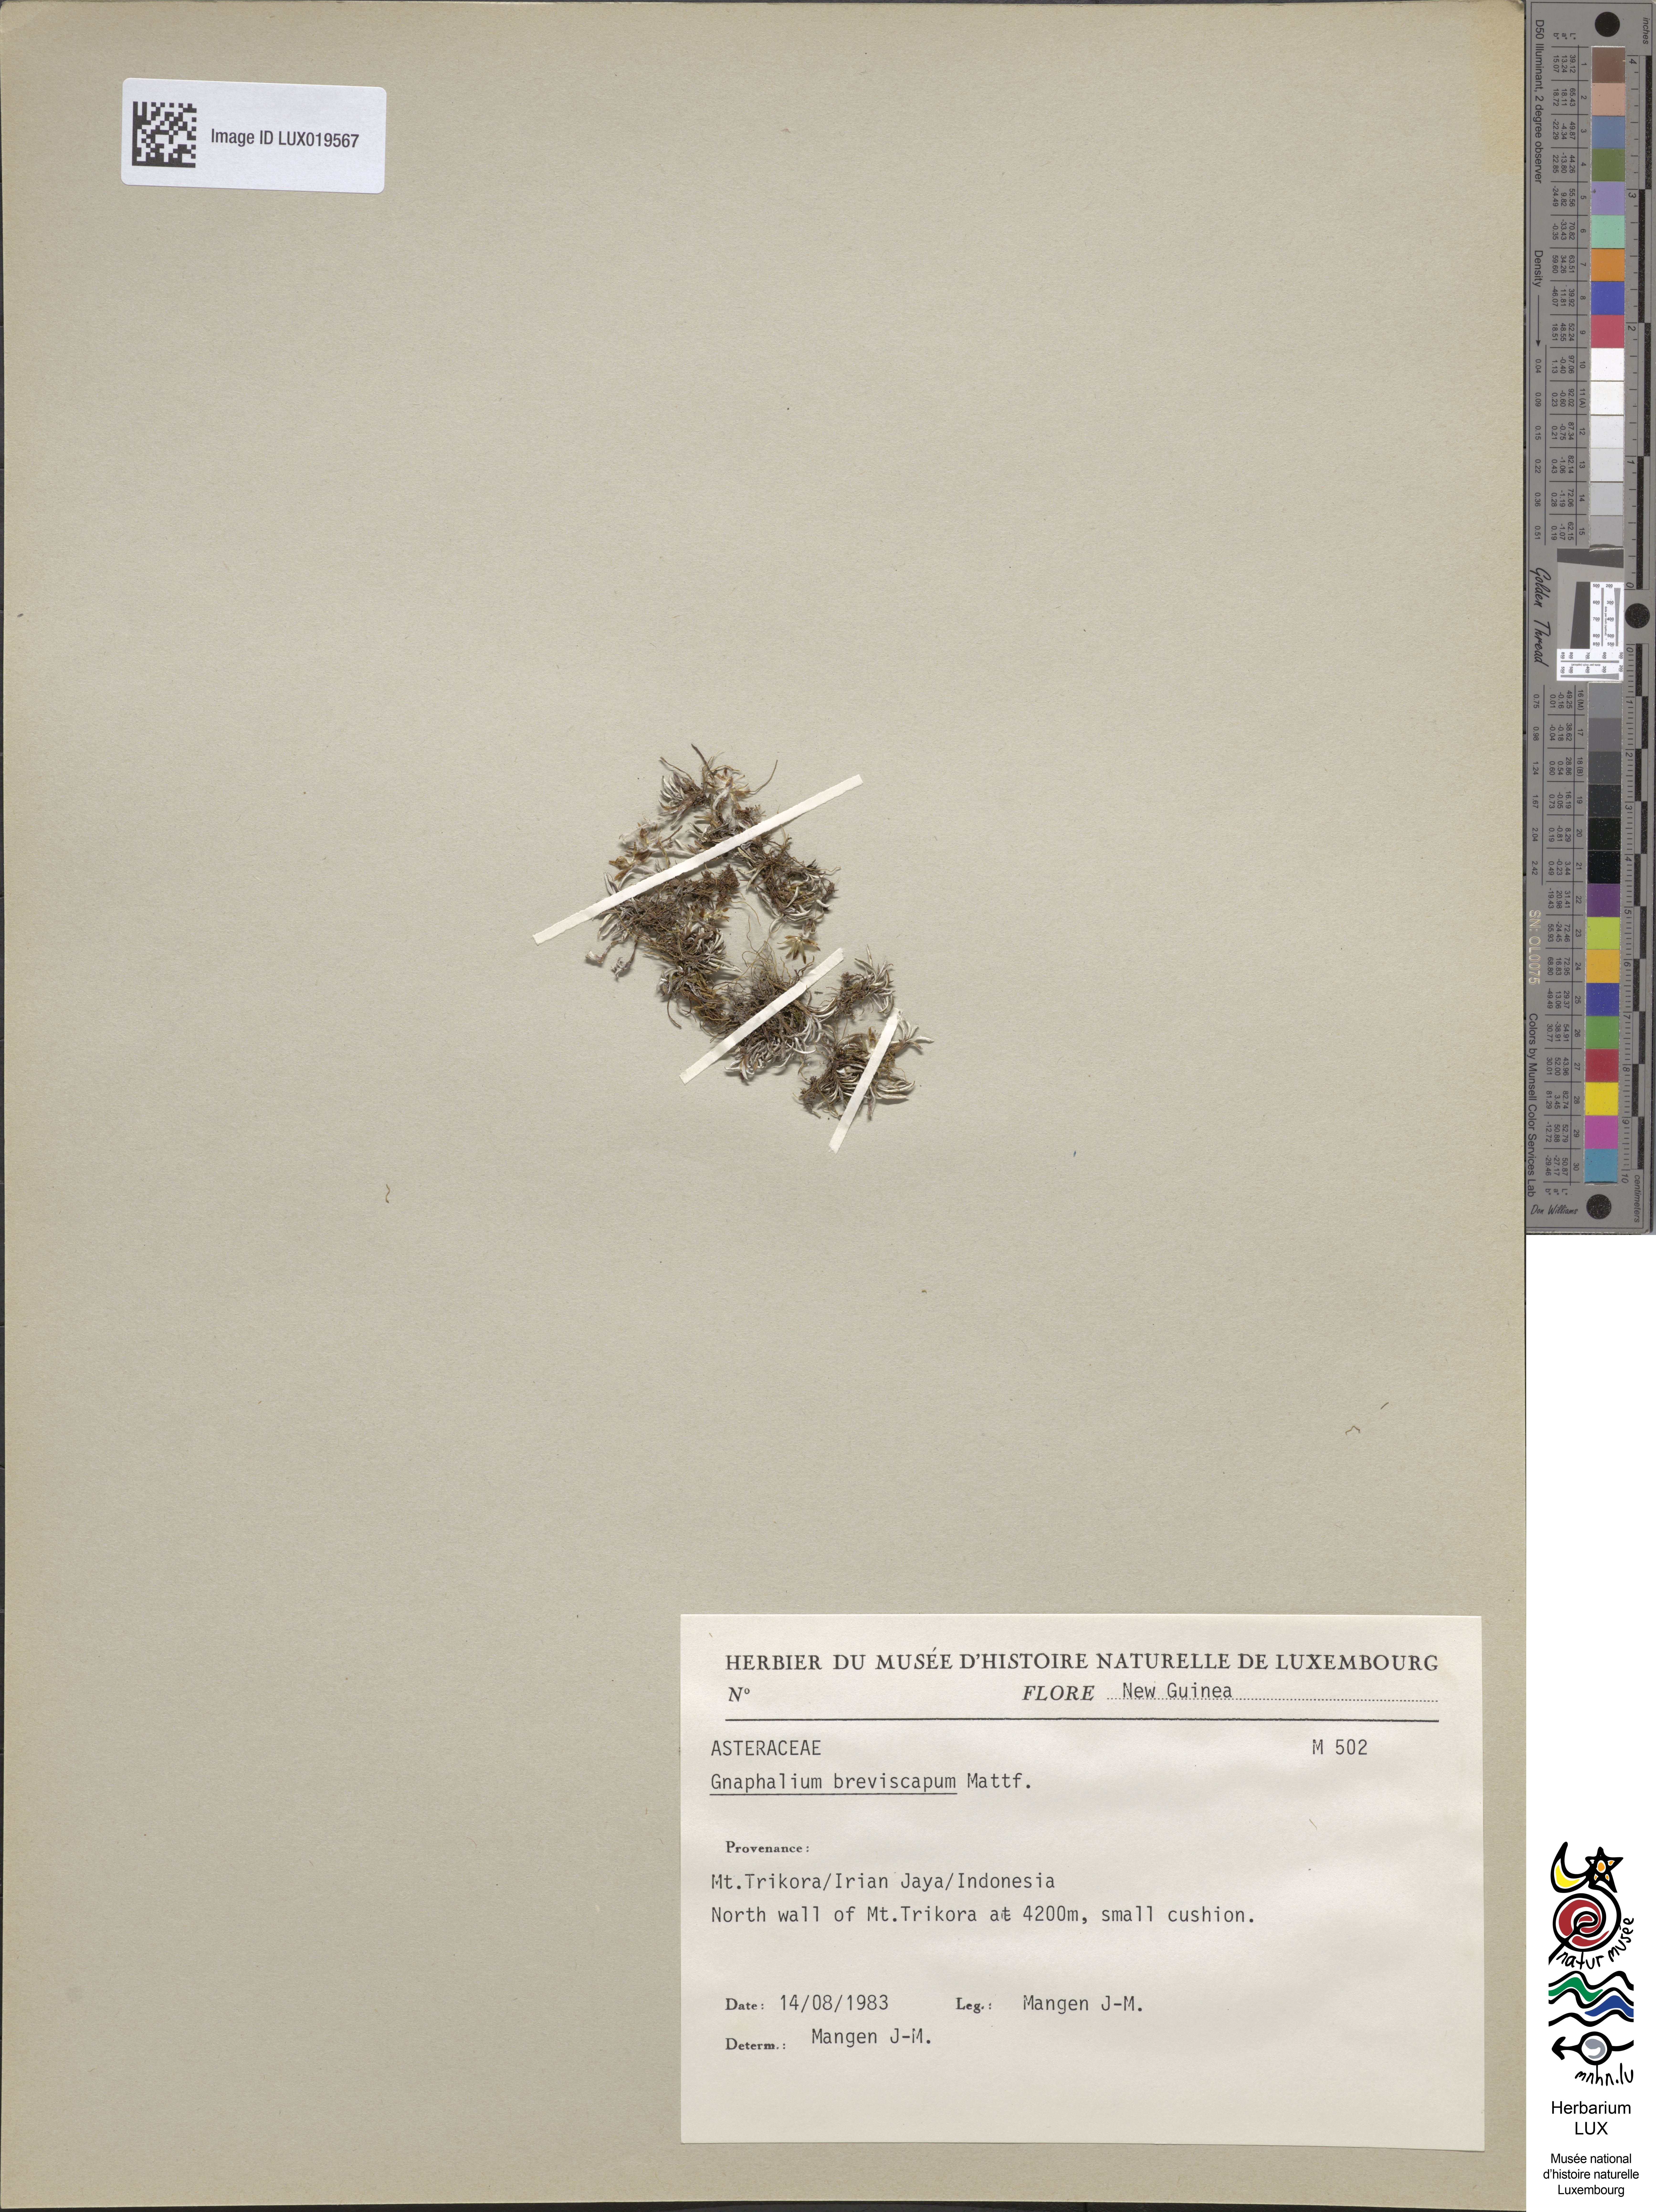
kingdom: Plantae
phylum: Tracheophyta
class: Magnoliopsida
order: Asterales
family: Asteraceae
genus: Euchiton
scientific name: Euchiton breviscapus
